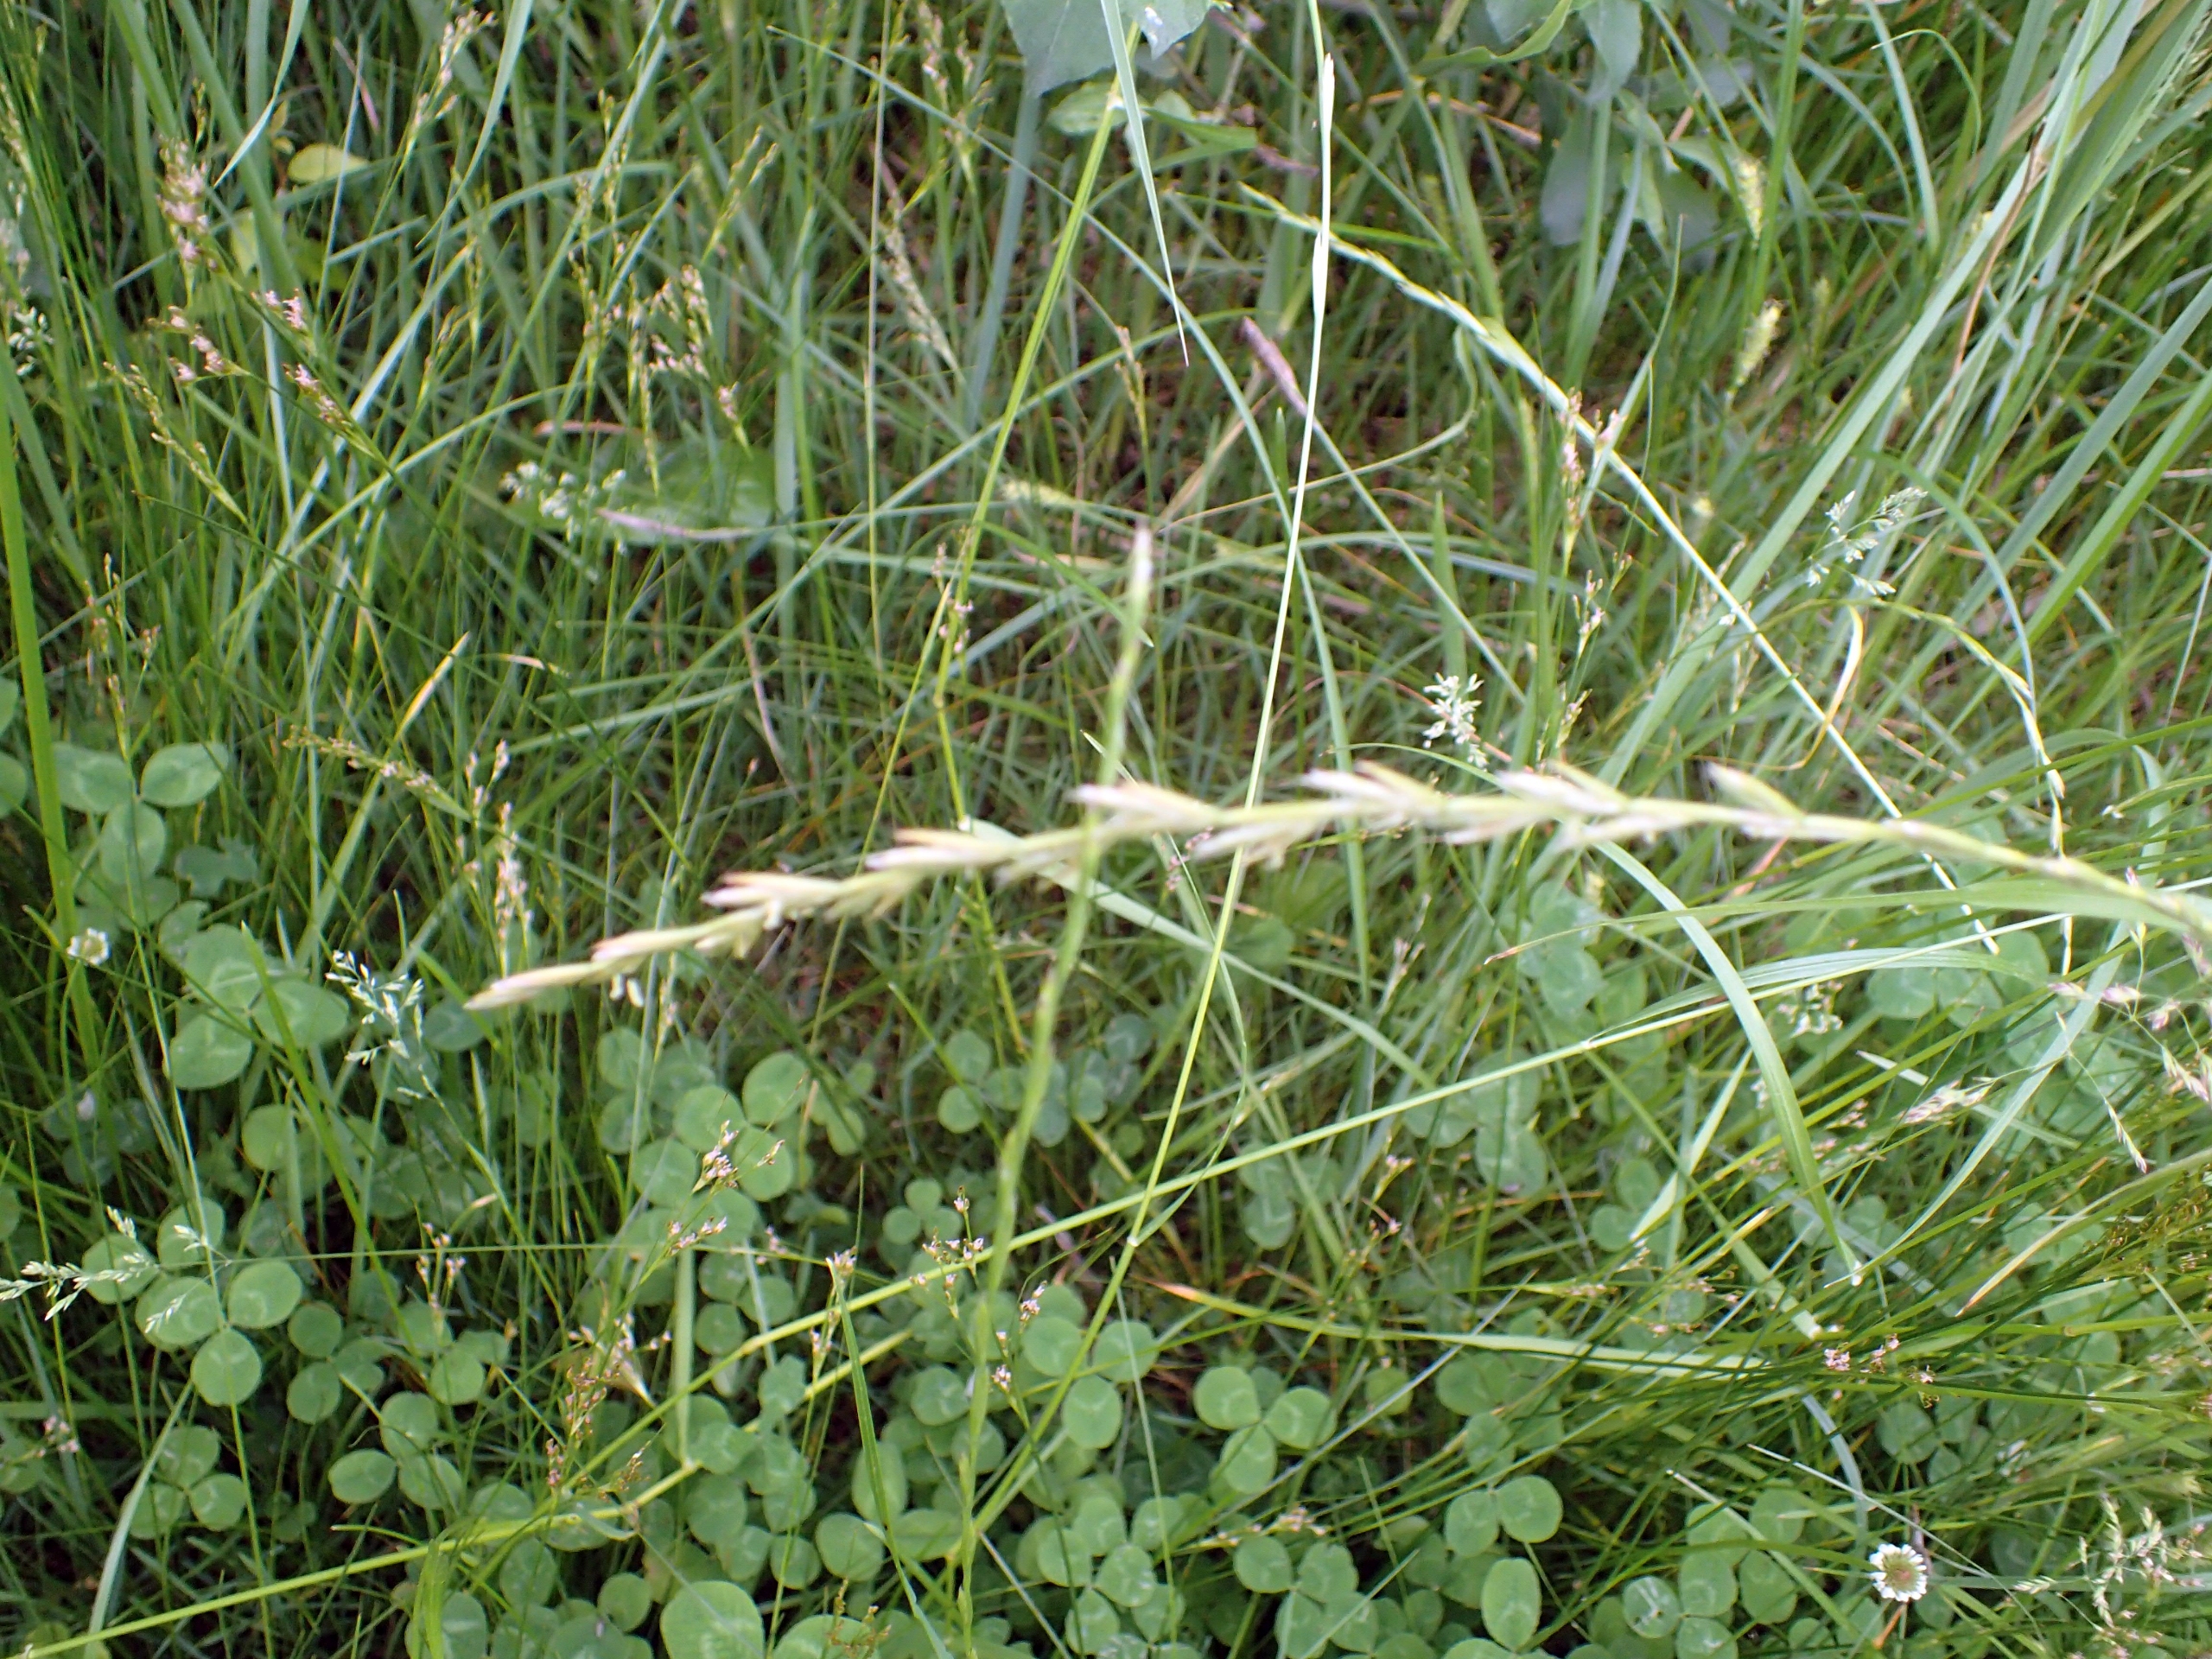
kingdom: Plantae
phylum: Tracheophyta
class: Liliopsida
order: Poales
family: Poaceae
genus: Lolium
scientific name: Lolium perenne
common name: Almindelig rajgræs
